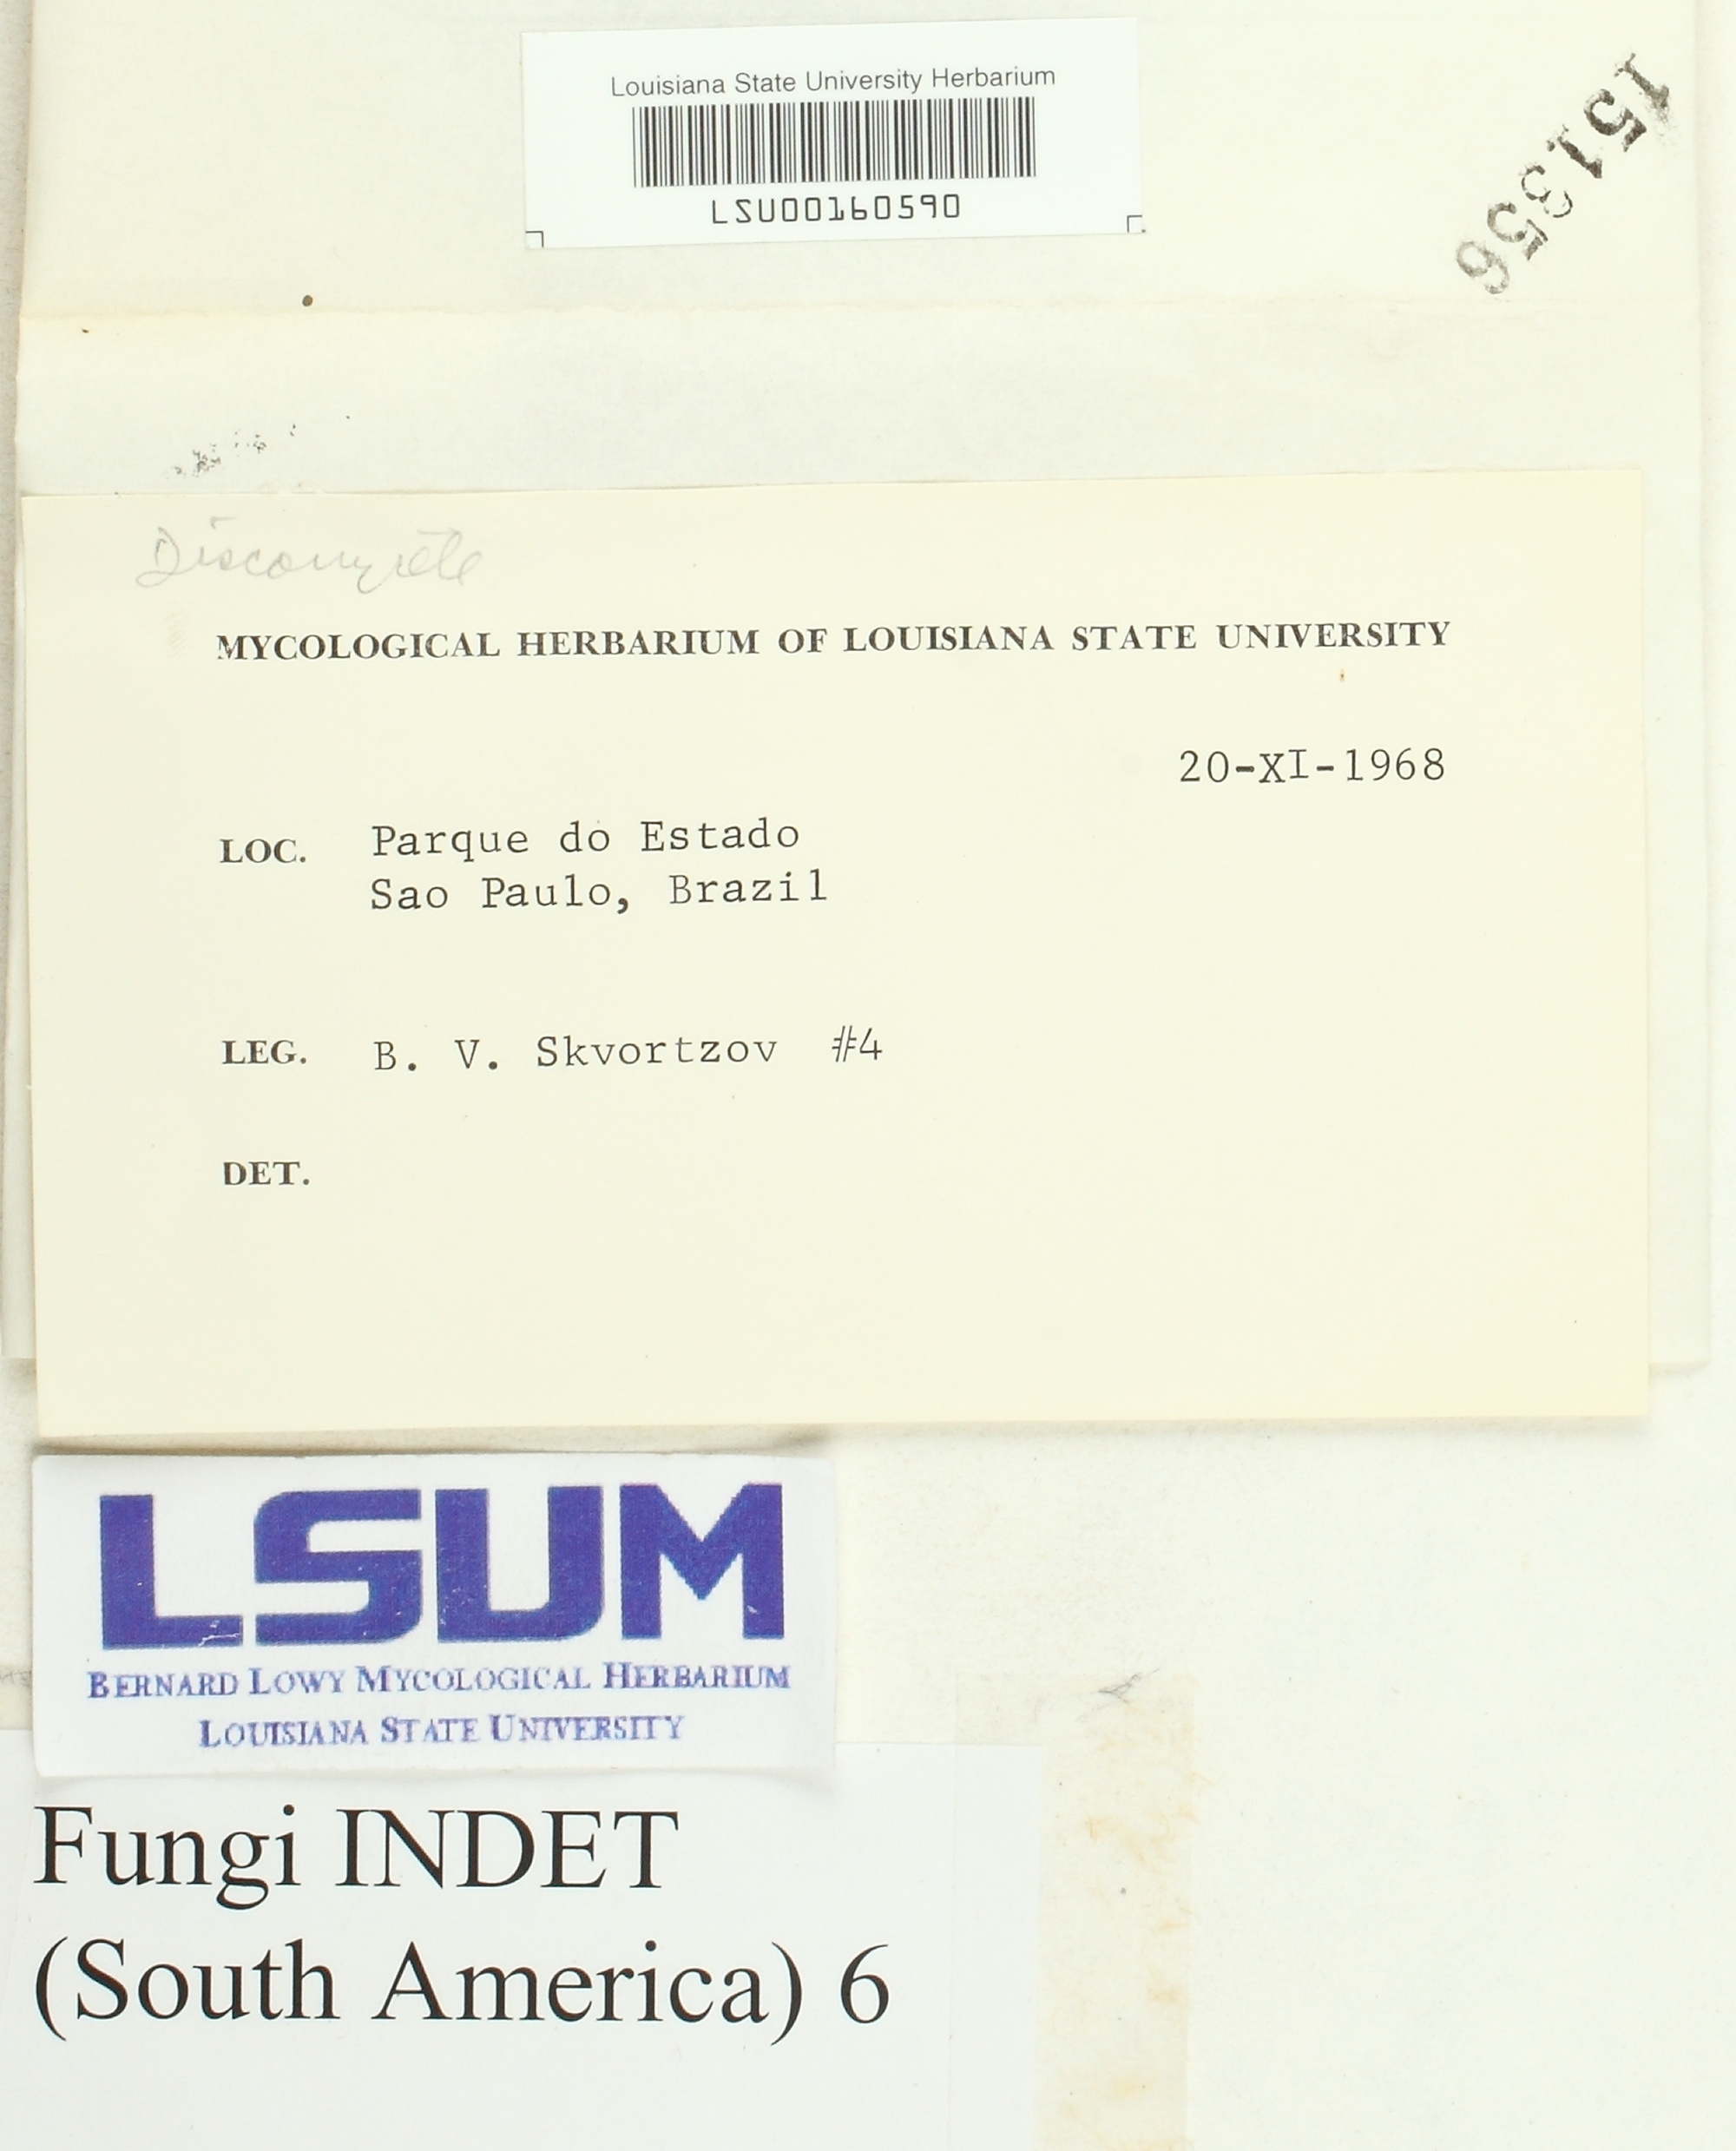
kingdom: Fungi
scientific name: Fungi
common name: Fungi
